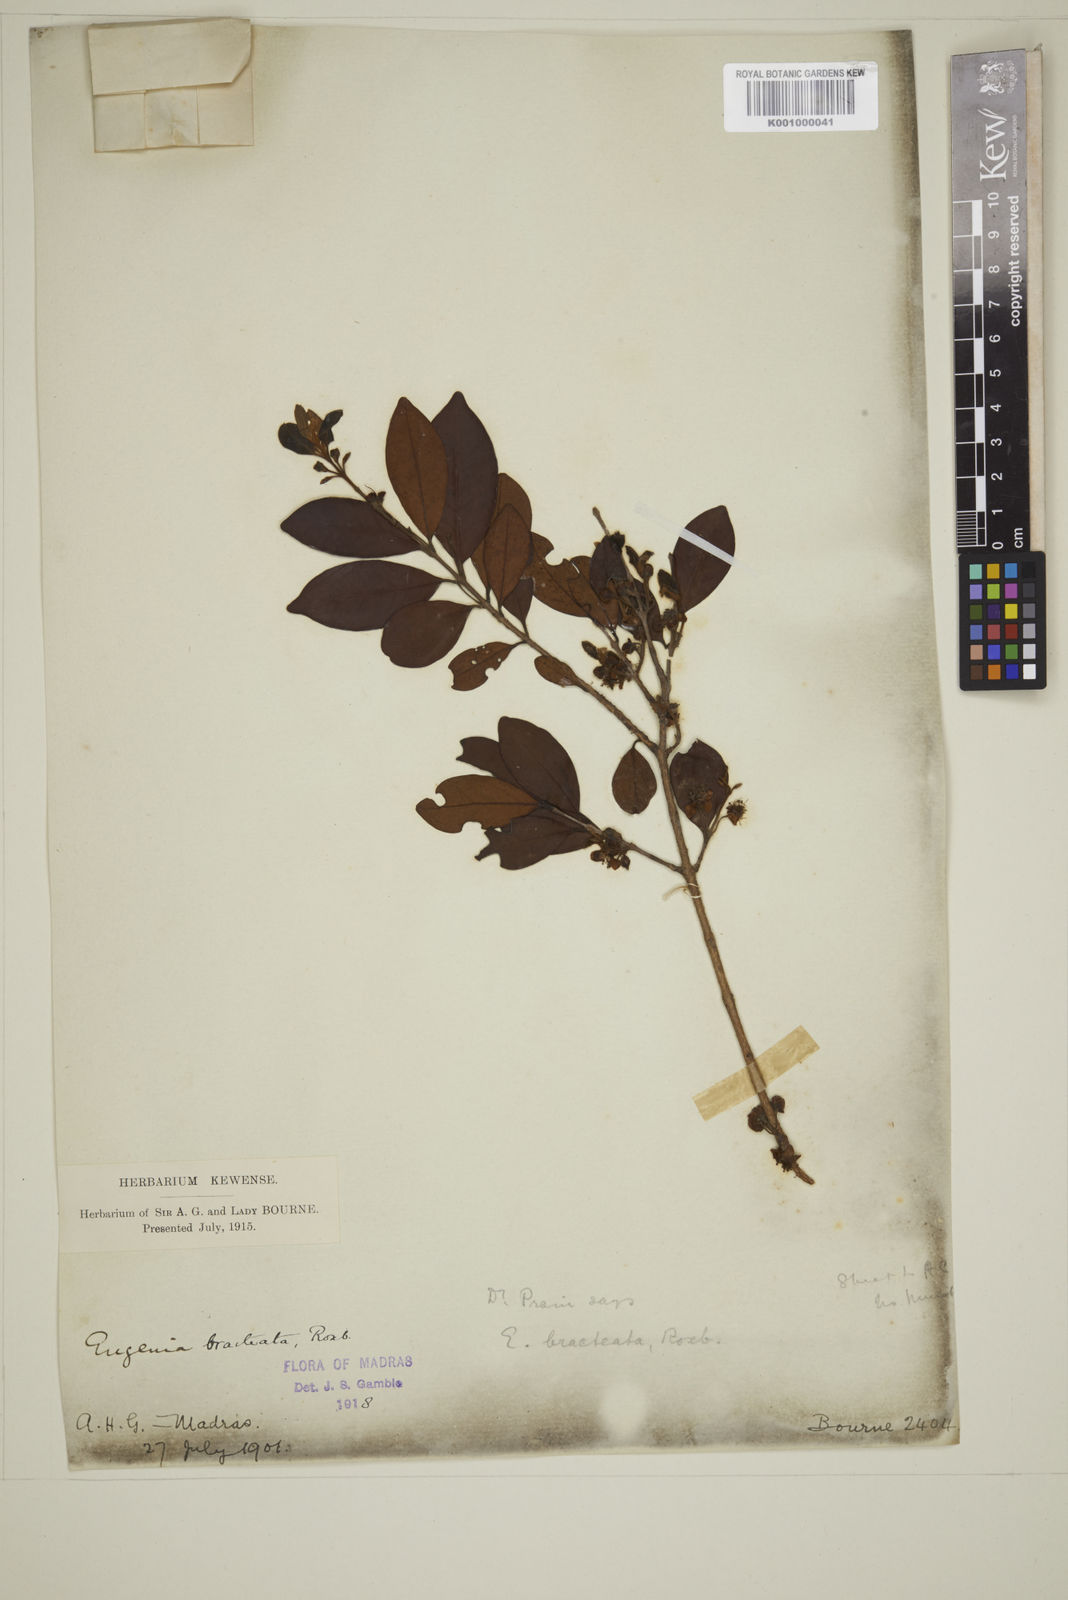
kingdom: Plantae
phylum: Tracheophyta
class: Magnoliopsida
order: Myrtales
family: Myrtaceae
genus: Myrcia
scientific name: Myrcia bracteata
